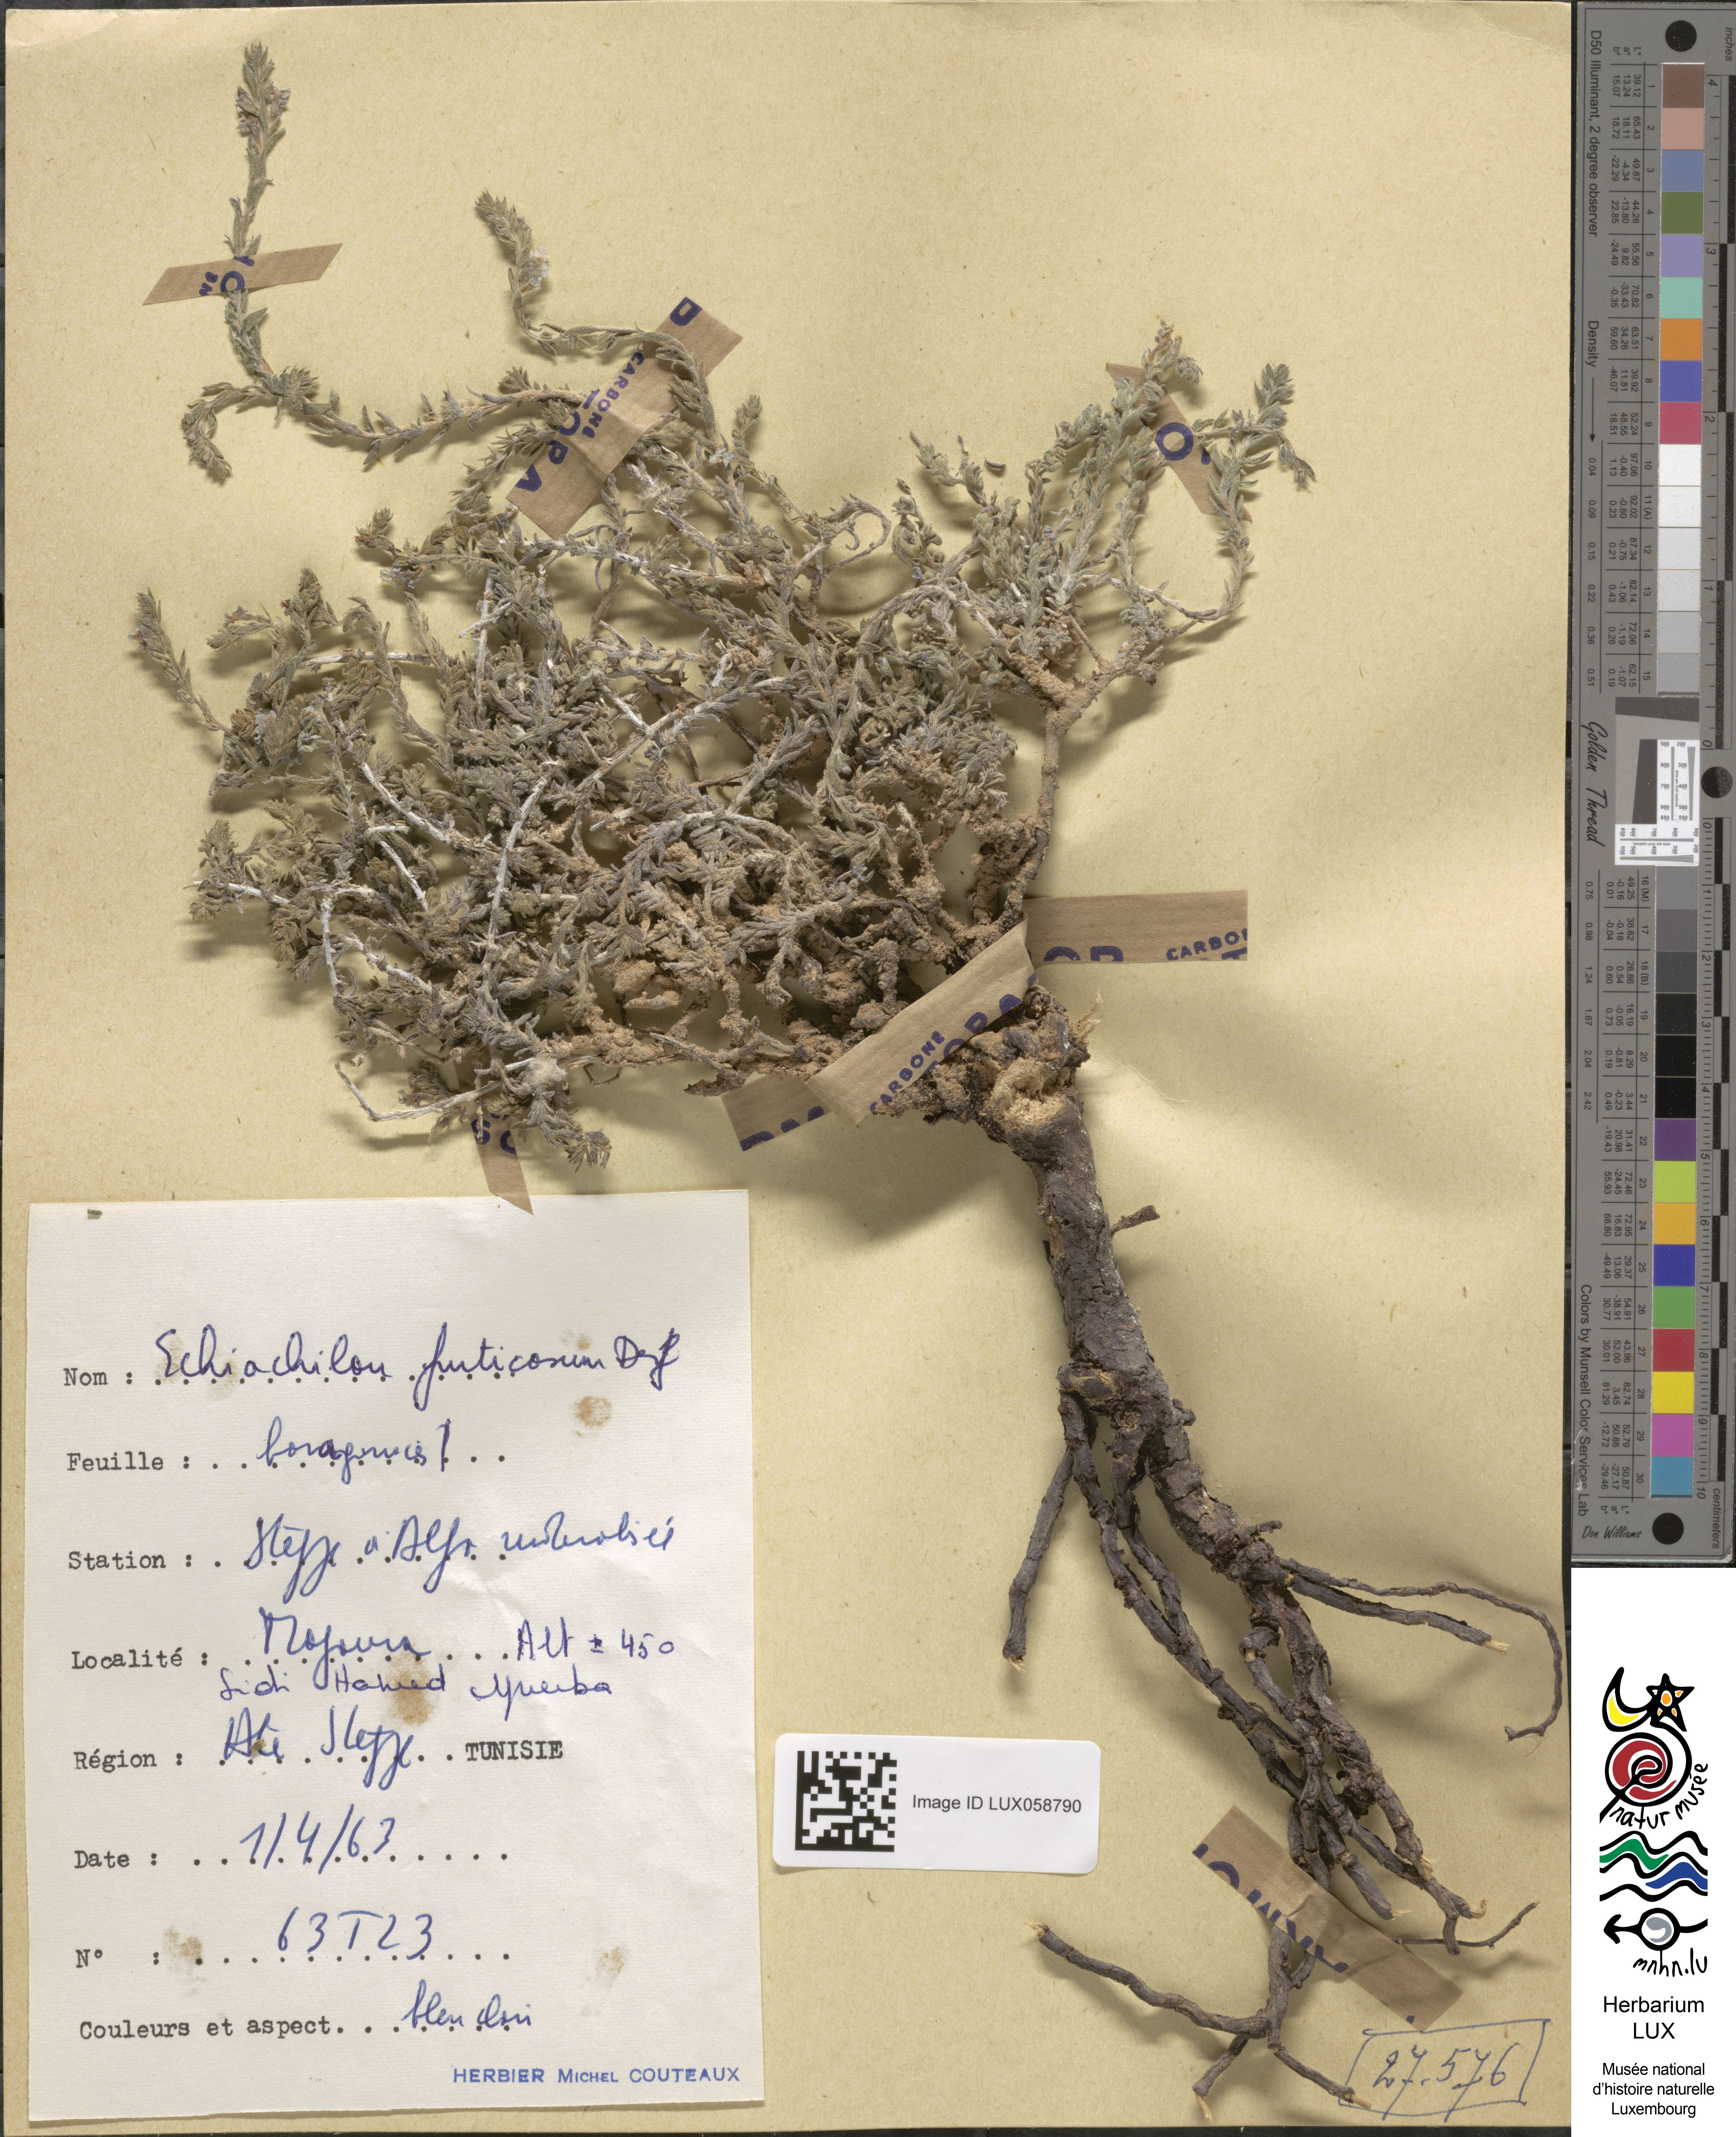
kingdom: Plantae
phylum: Tracheophyta
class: Magnoliopsida
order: Boraginales
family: Boraginaceae
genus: Echiochilon
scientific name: Echiochilon fruticosum
